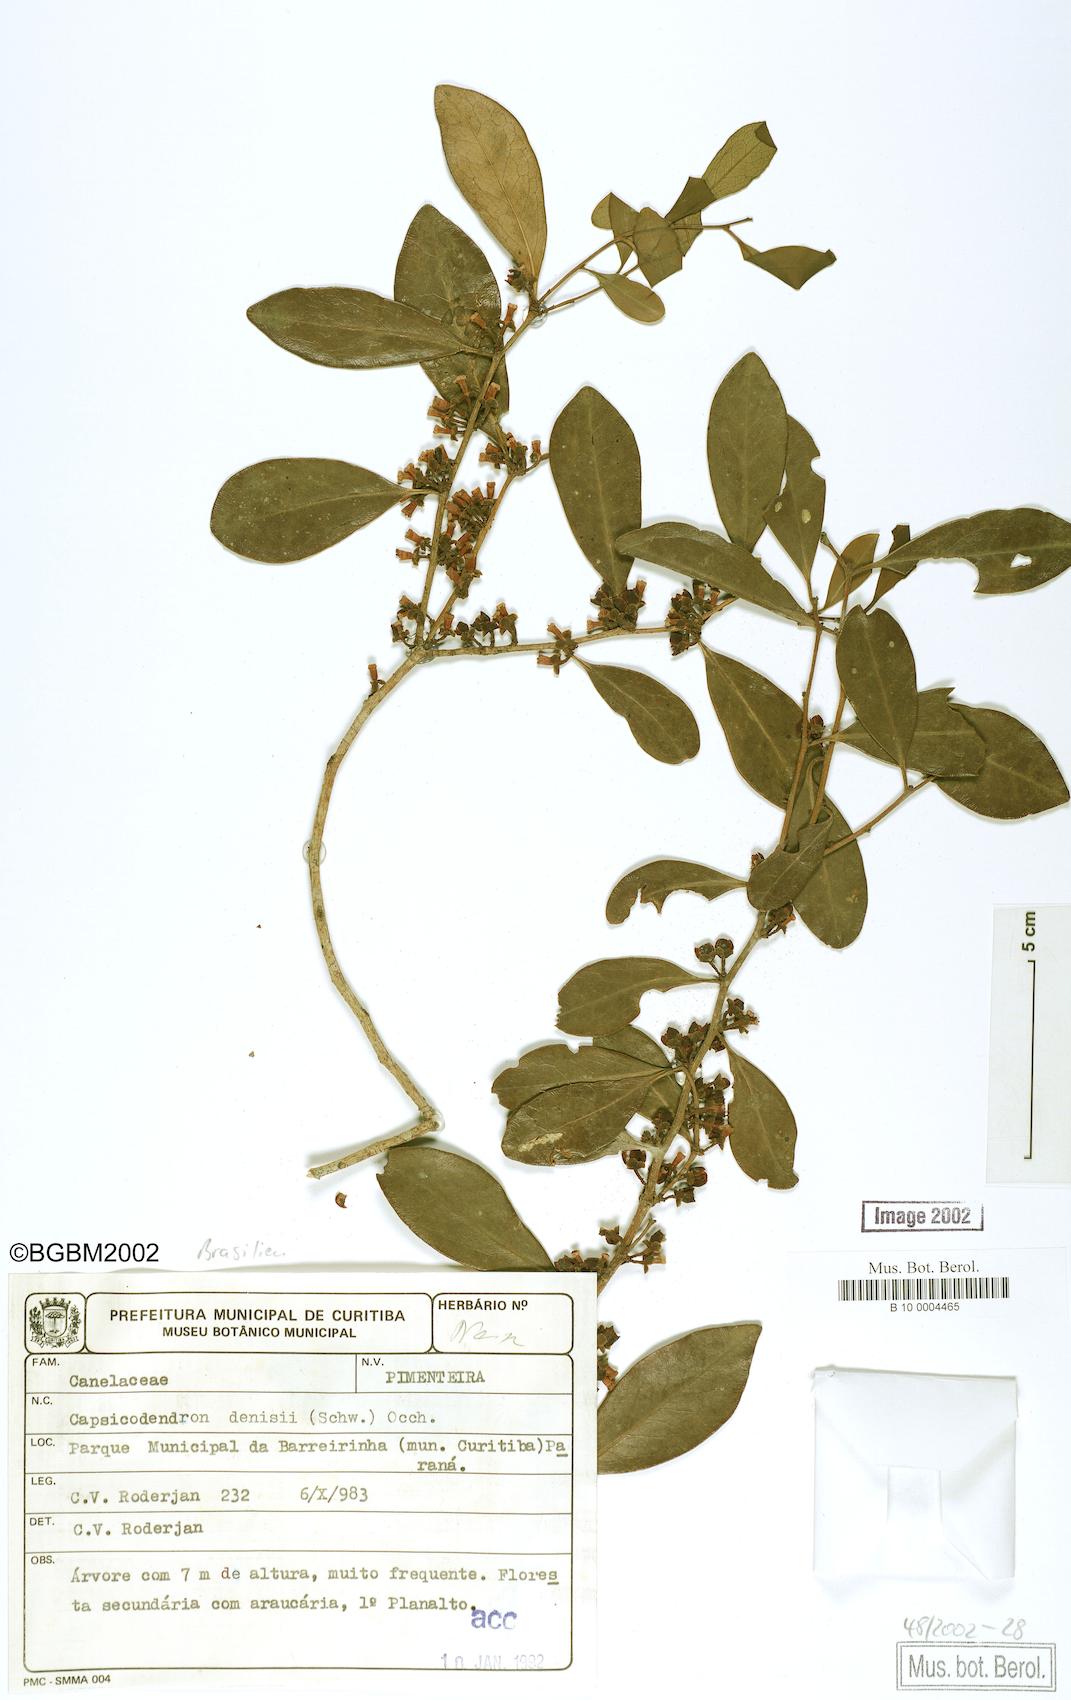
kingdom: Plantae
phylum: Tracheophyta
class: Magnoliopsida
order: Canellales
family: Canellaceae
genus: Cinnamodendron
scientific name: Cinnamodendron dinisii
